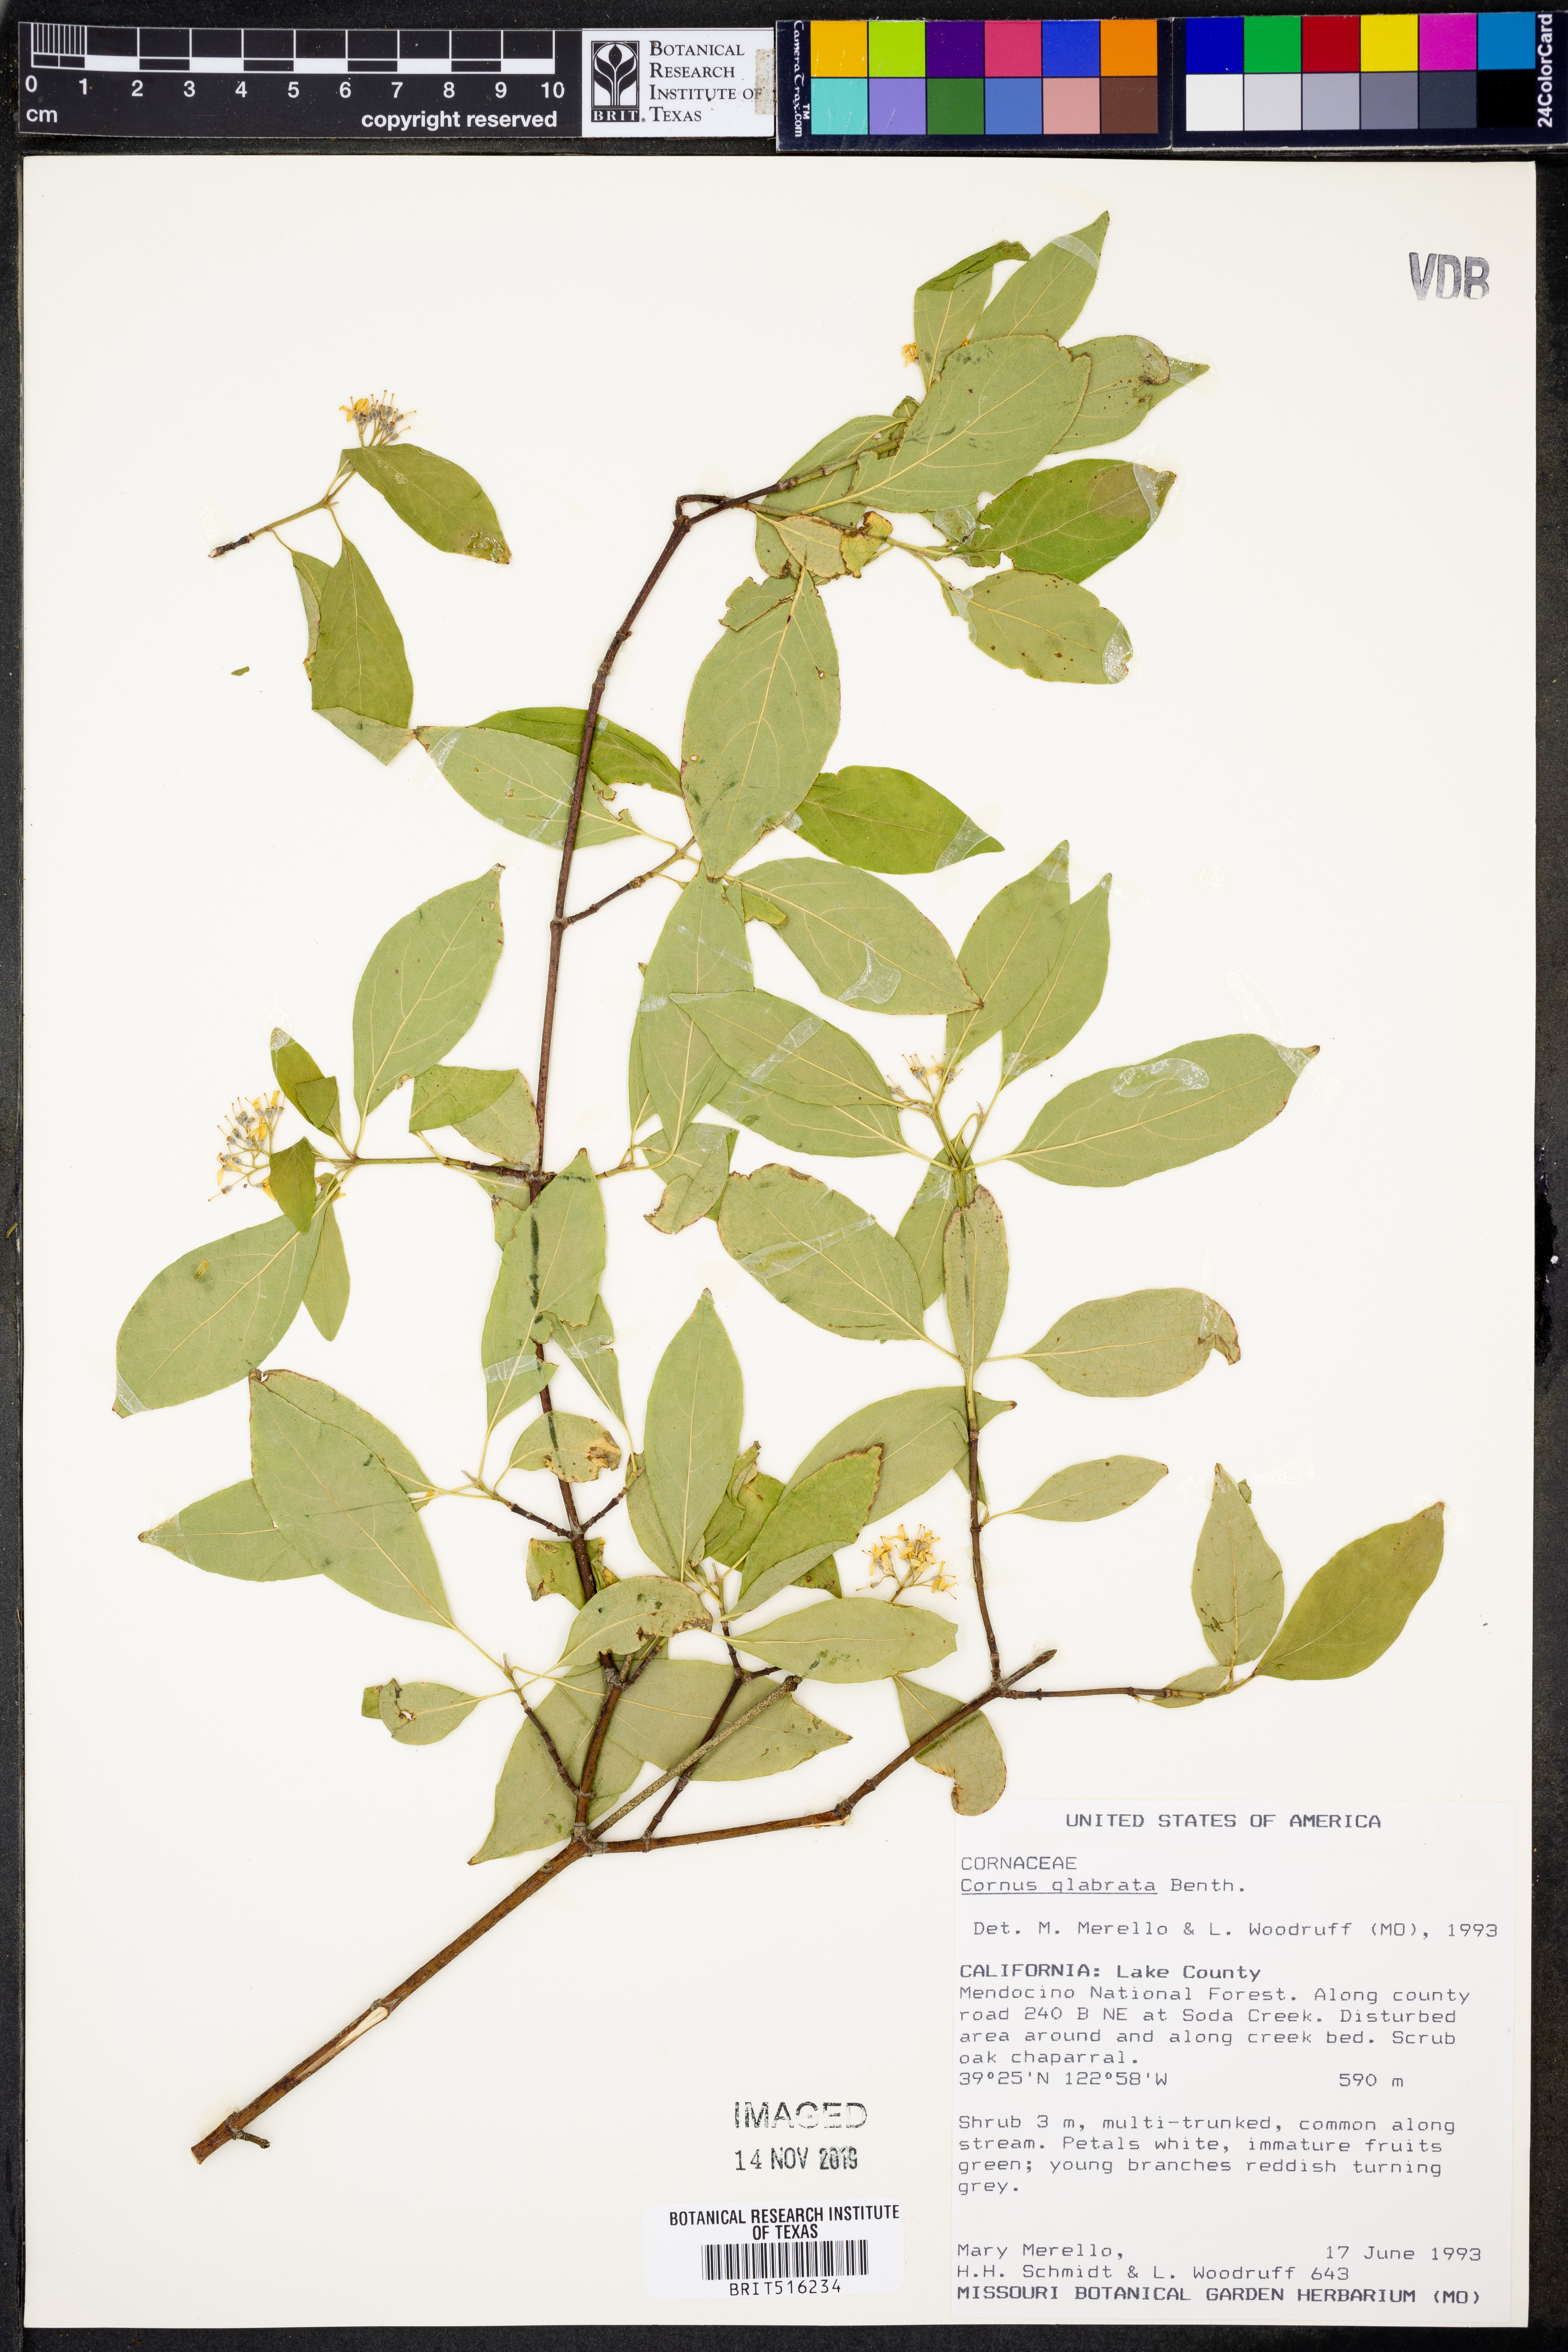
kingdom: Plantae
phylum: Tracheophyta
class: Magnoliopsida
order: Cornales
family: Cornaceae
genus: Cornus
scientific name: Cornus glabrata
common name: Smooth dogwood
